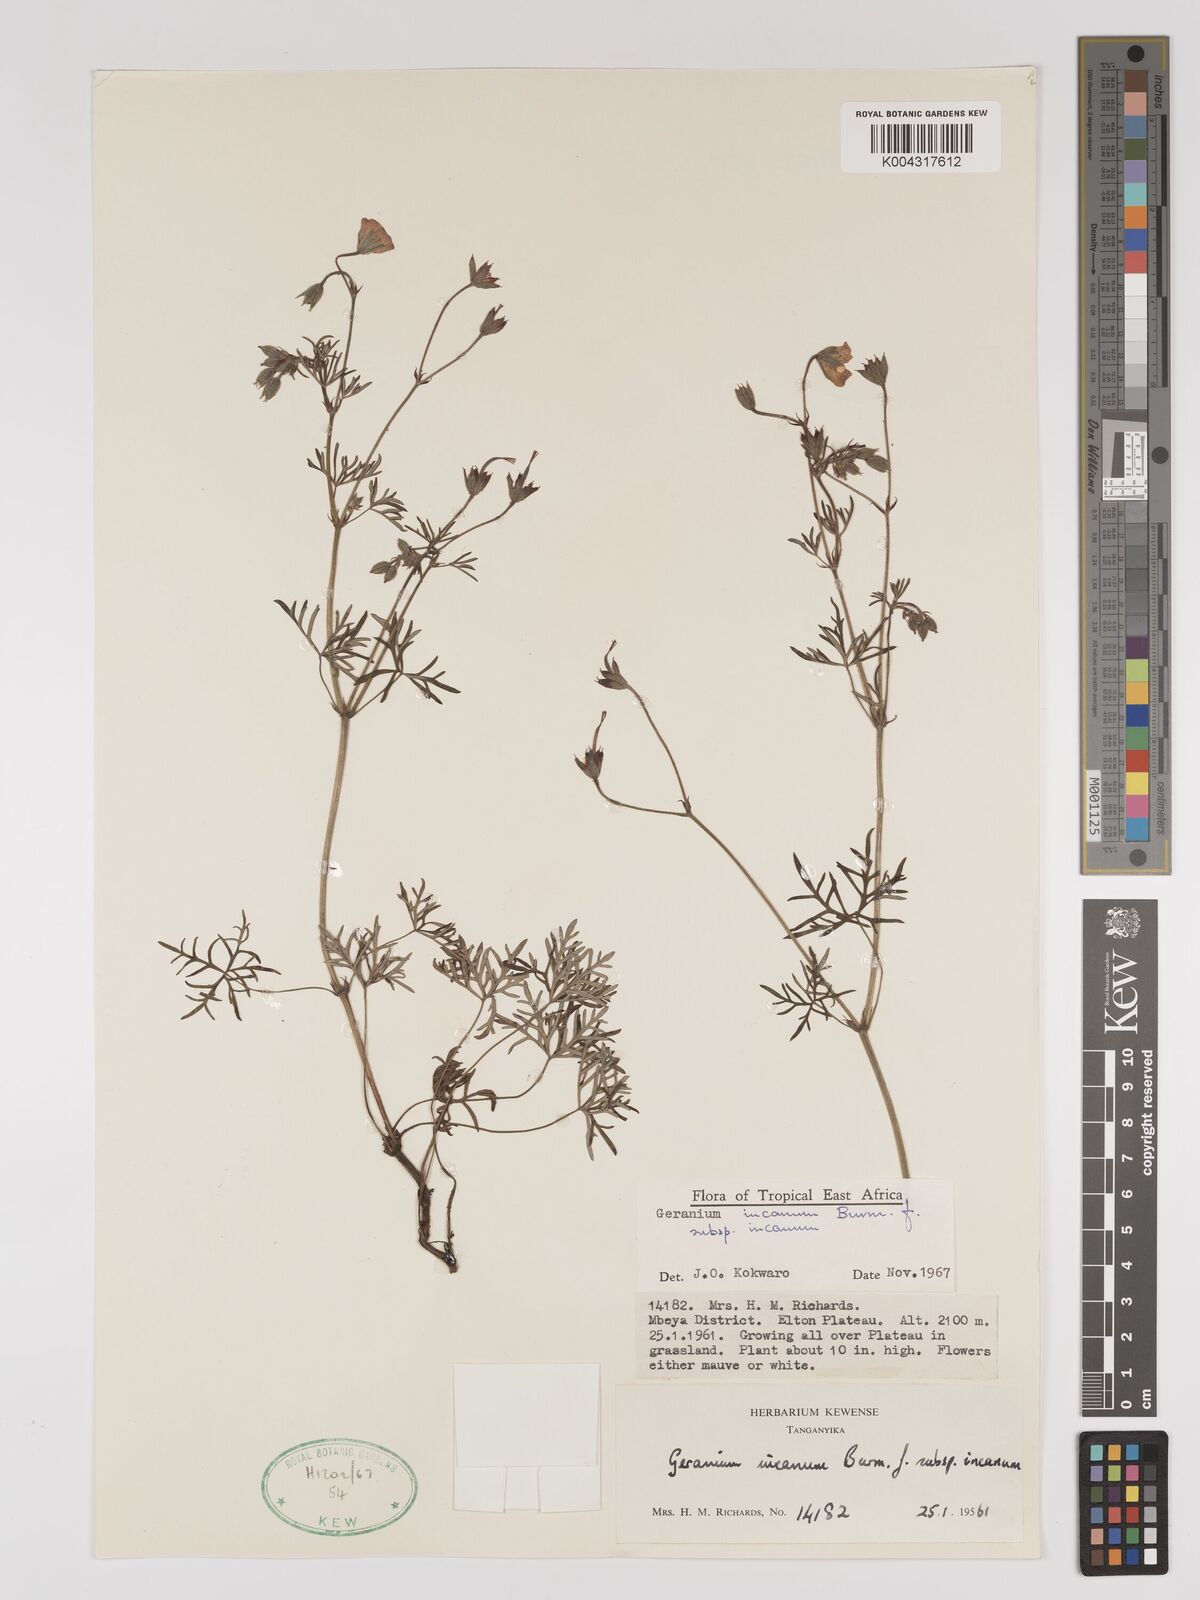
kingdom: Plantae
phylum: Tracheophyta
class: Magnoliopsida
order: Geraniales
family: Geraniaceae
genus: Geranium
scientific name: Geranium incanum
